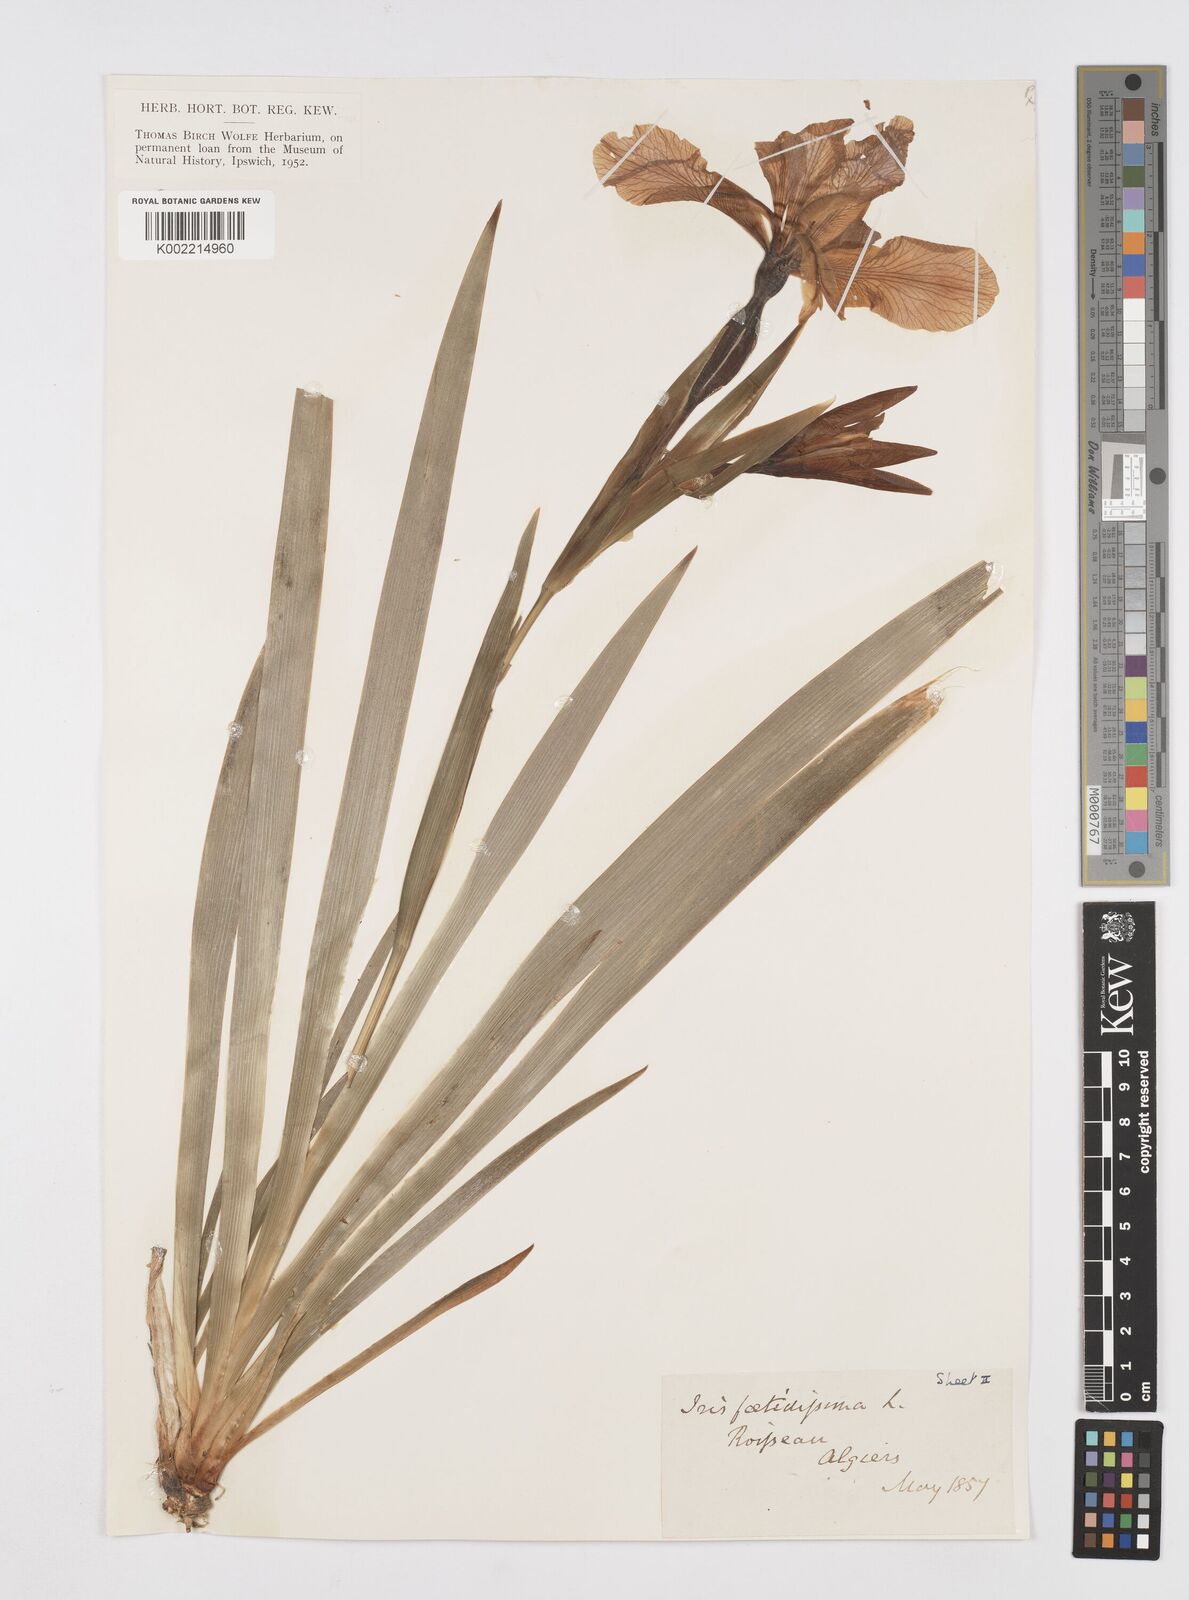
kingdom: Plantae
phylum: Tracheophyta
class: Liliopsida
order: Asparagales
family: Iridaceae
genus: Iris
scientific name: Iris foetidissima
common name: Stinking iris
